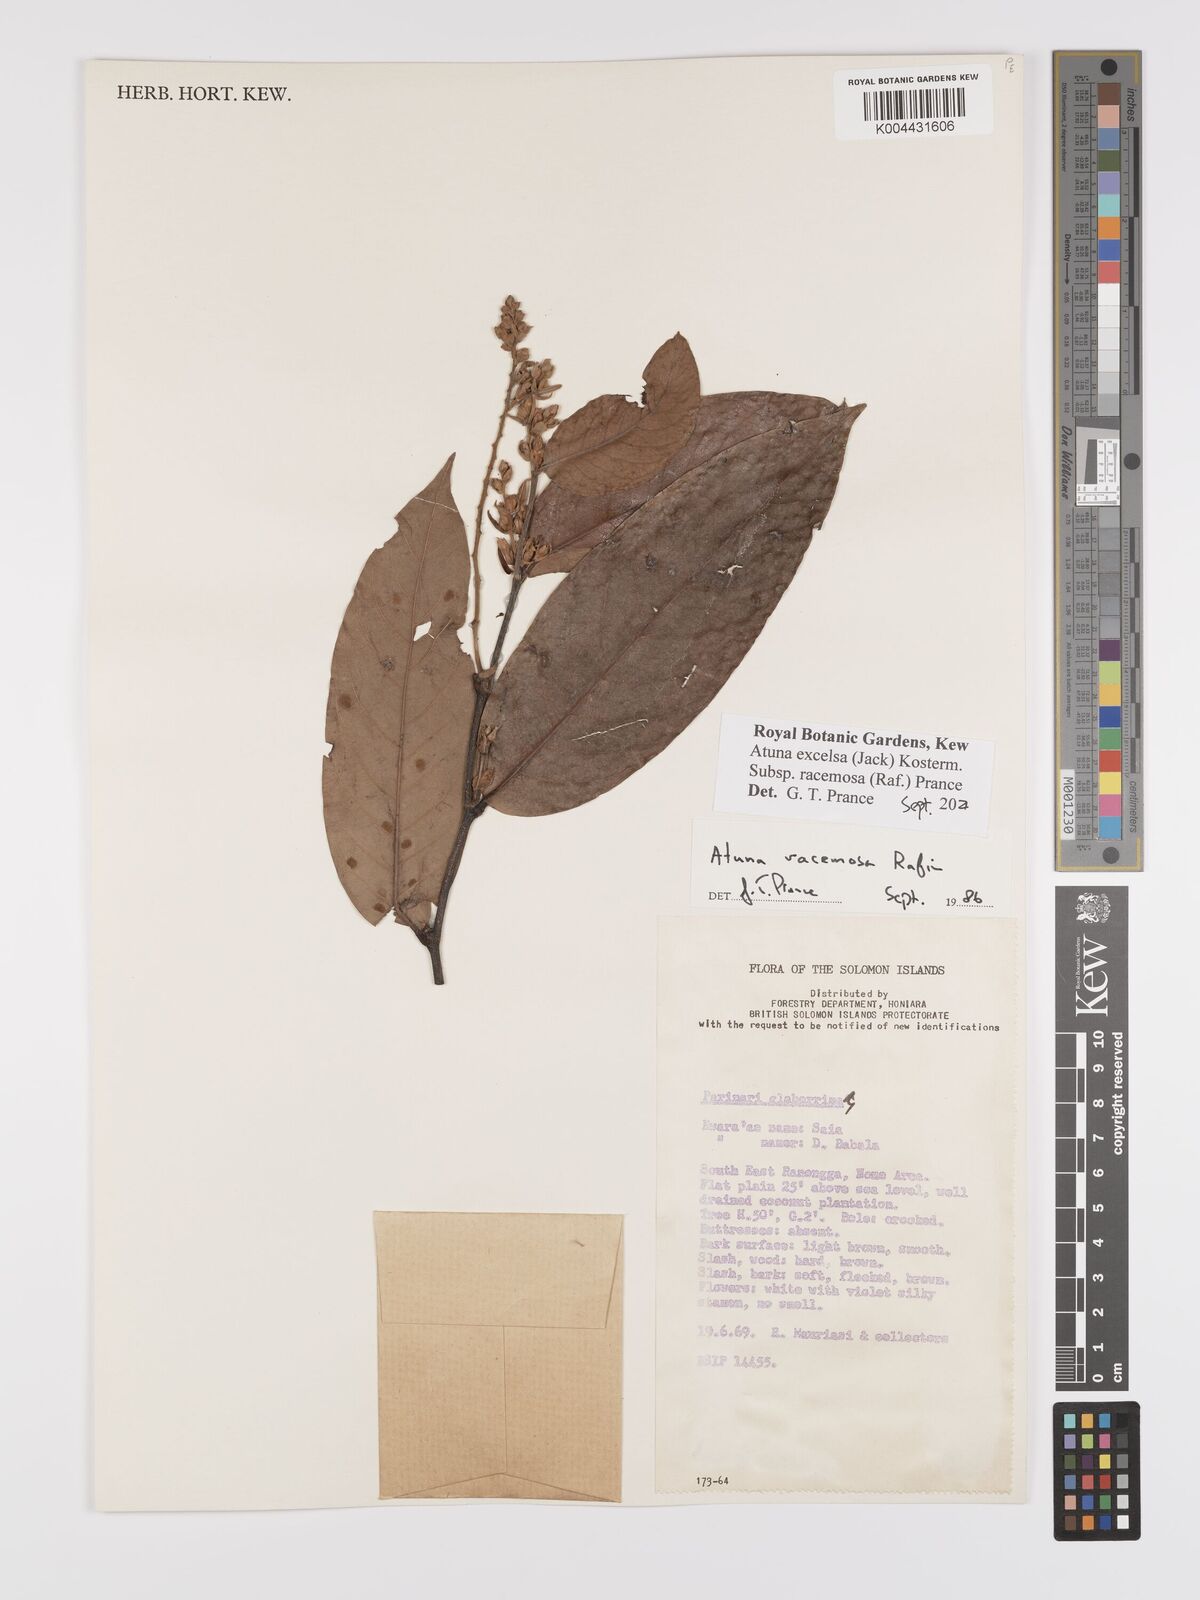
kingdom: Plantae
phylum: Tracheophyta
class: Magnoliopsida
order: Malpighiales
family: Chrysobalanaceae
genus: Atuna
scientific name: Atuna
